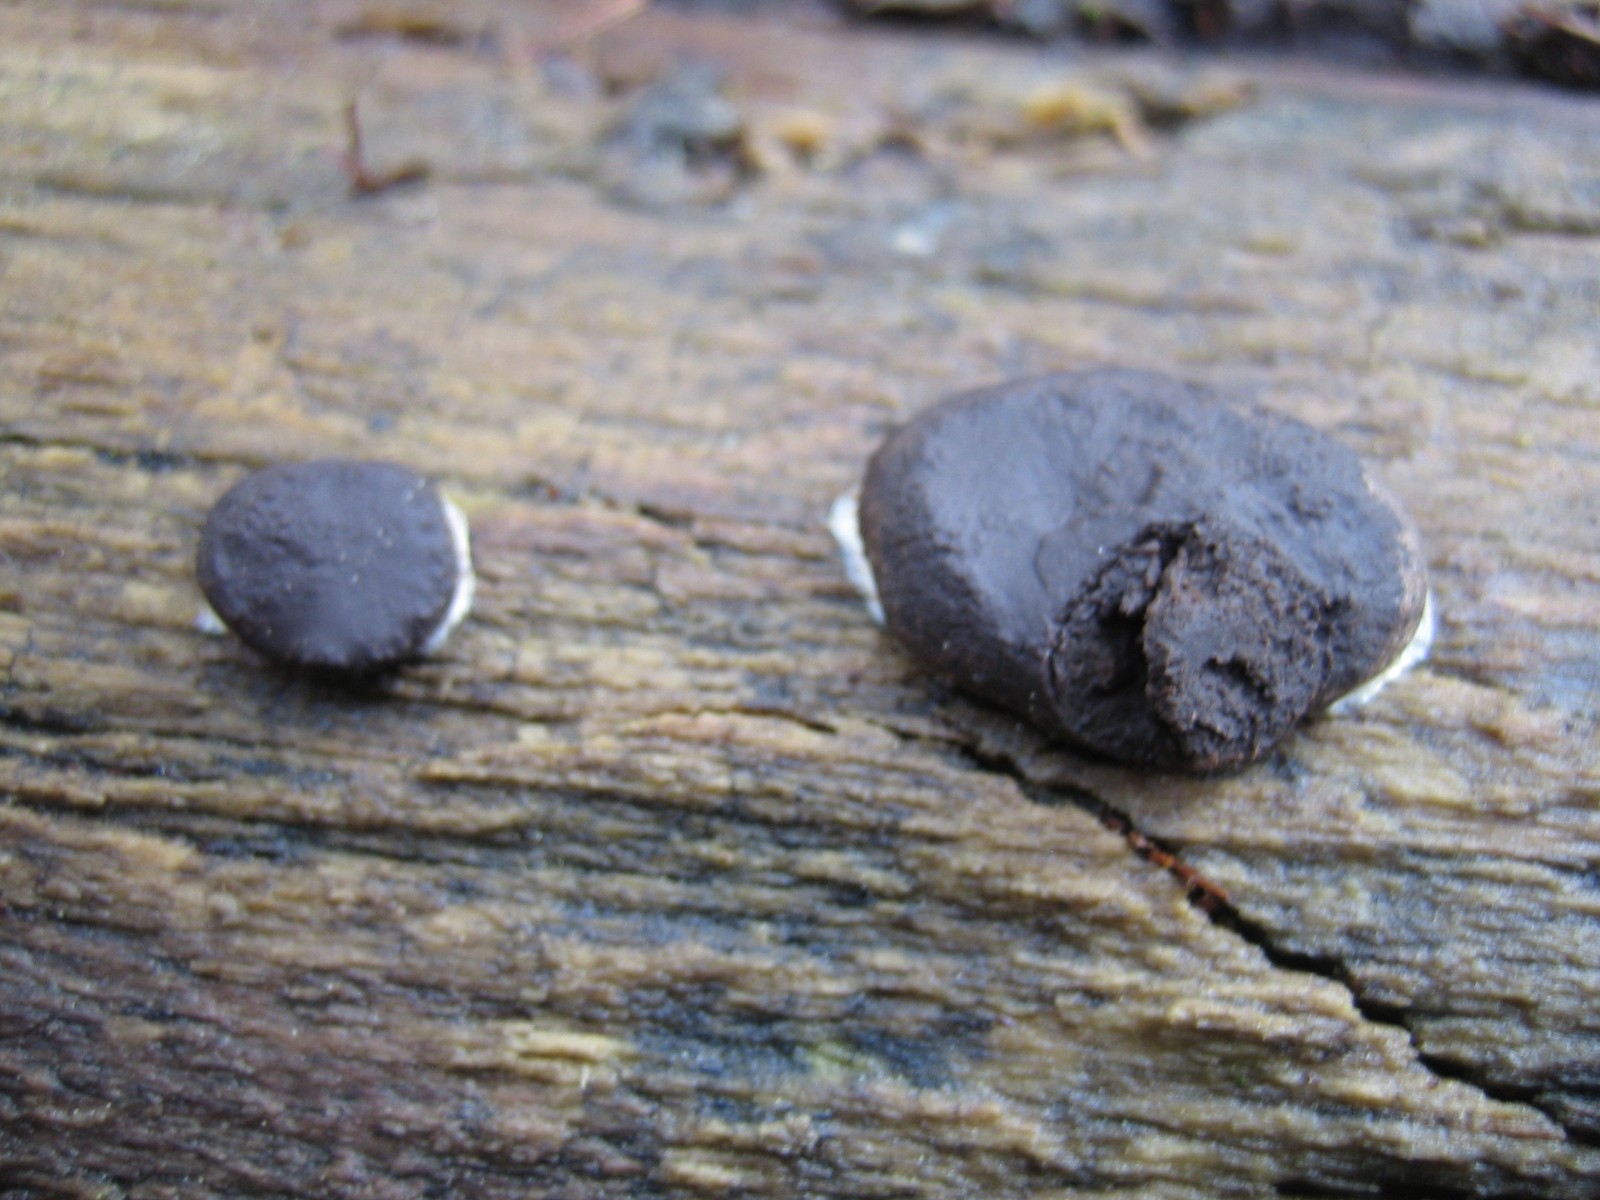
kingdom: Protozoa
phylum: Mycetozoa
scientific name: Mycetozoa
